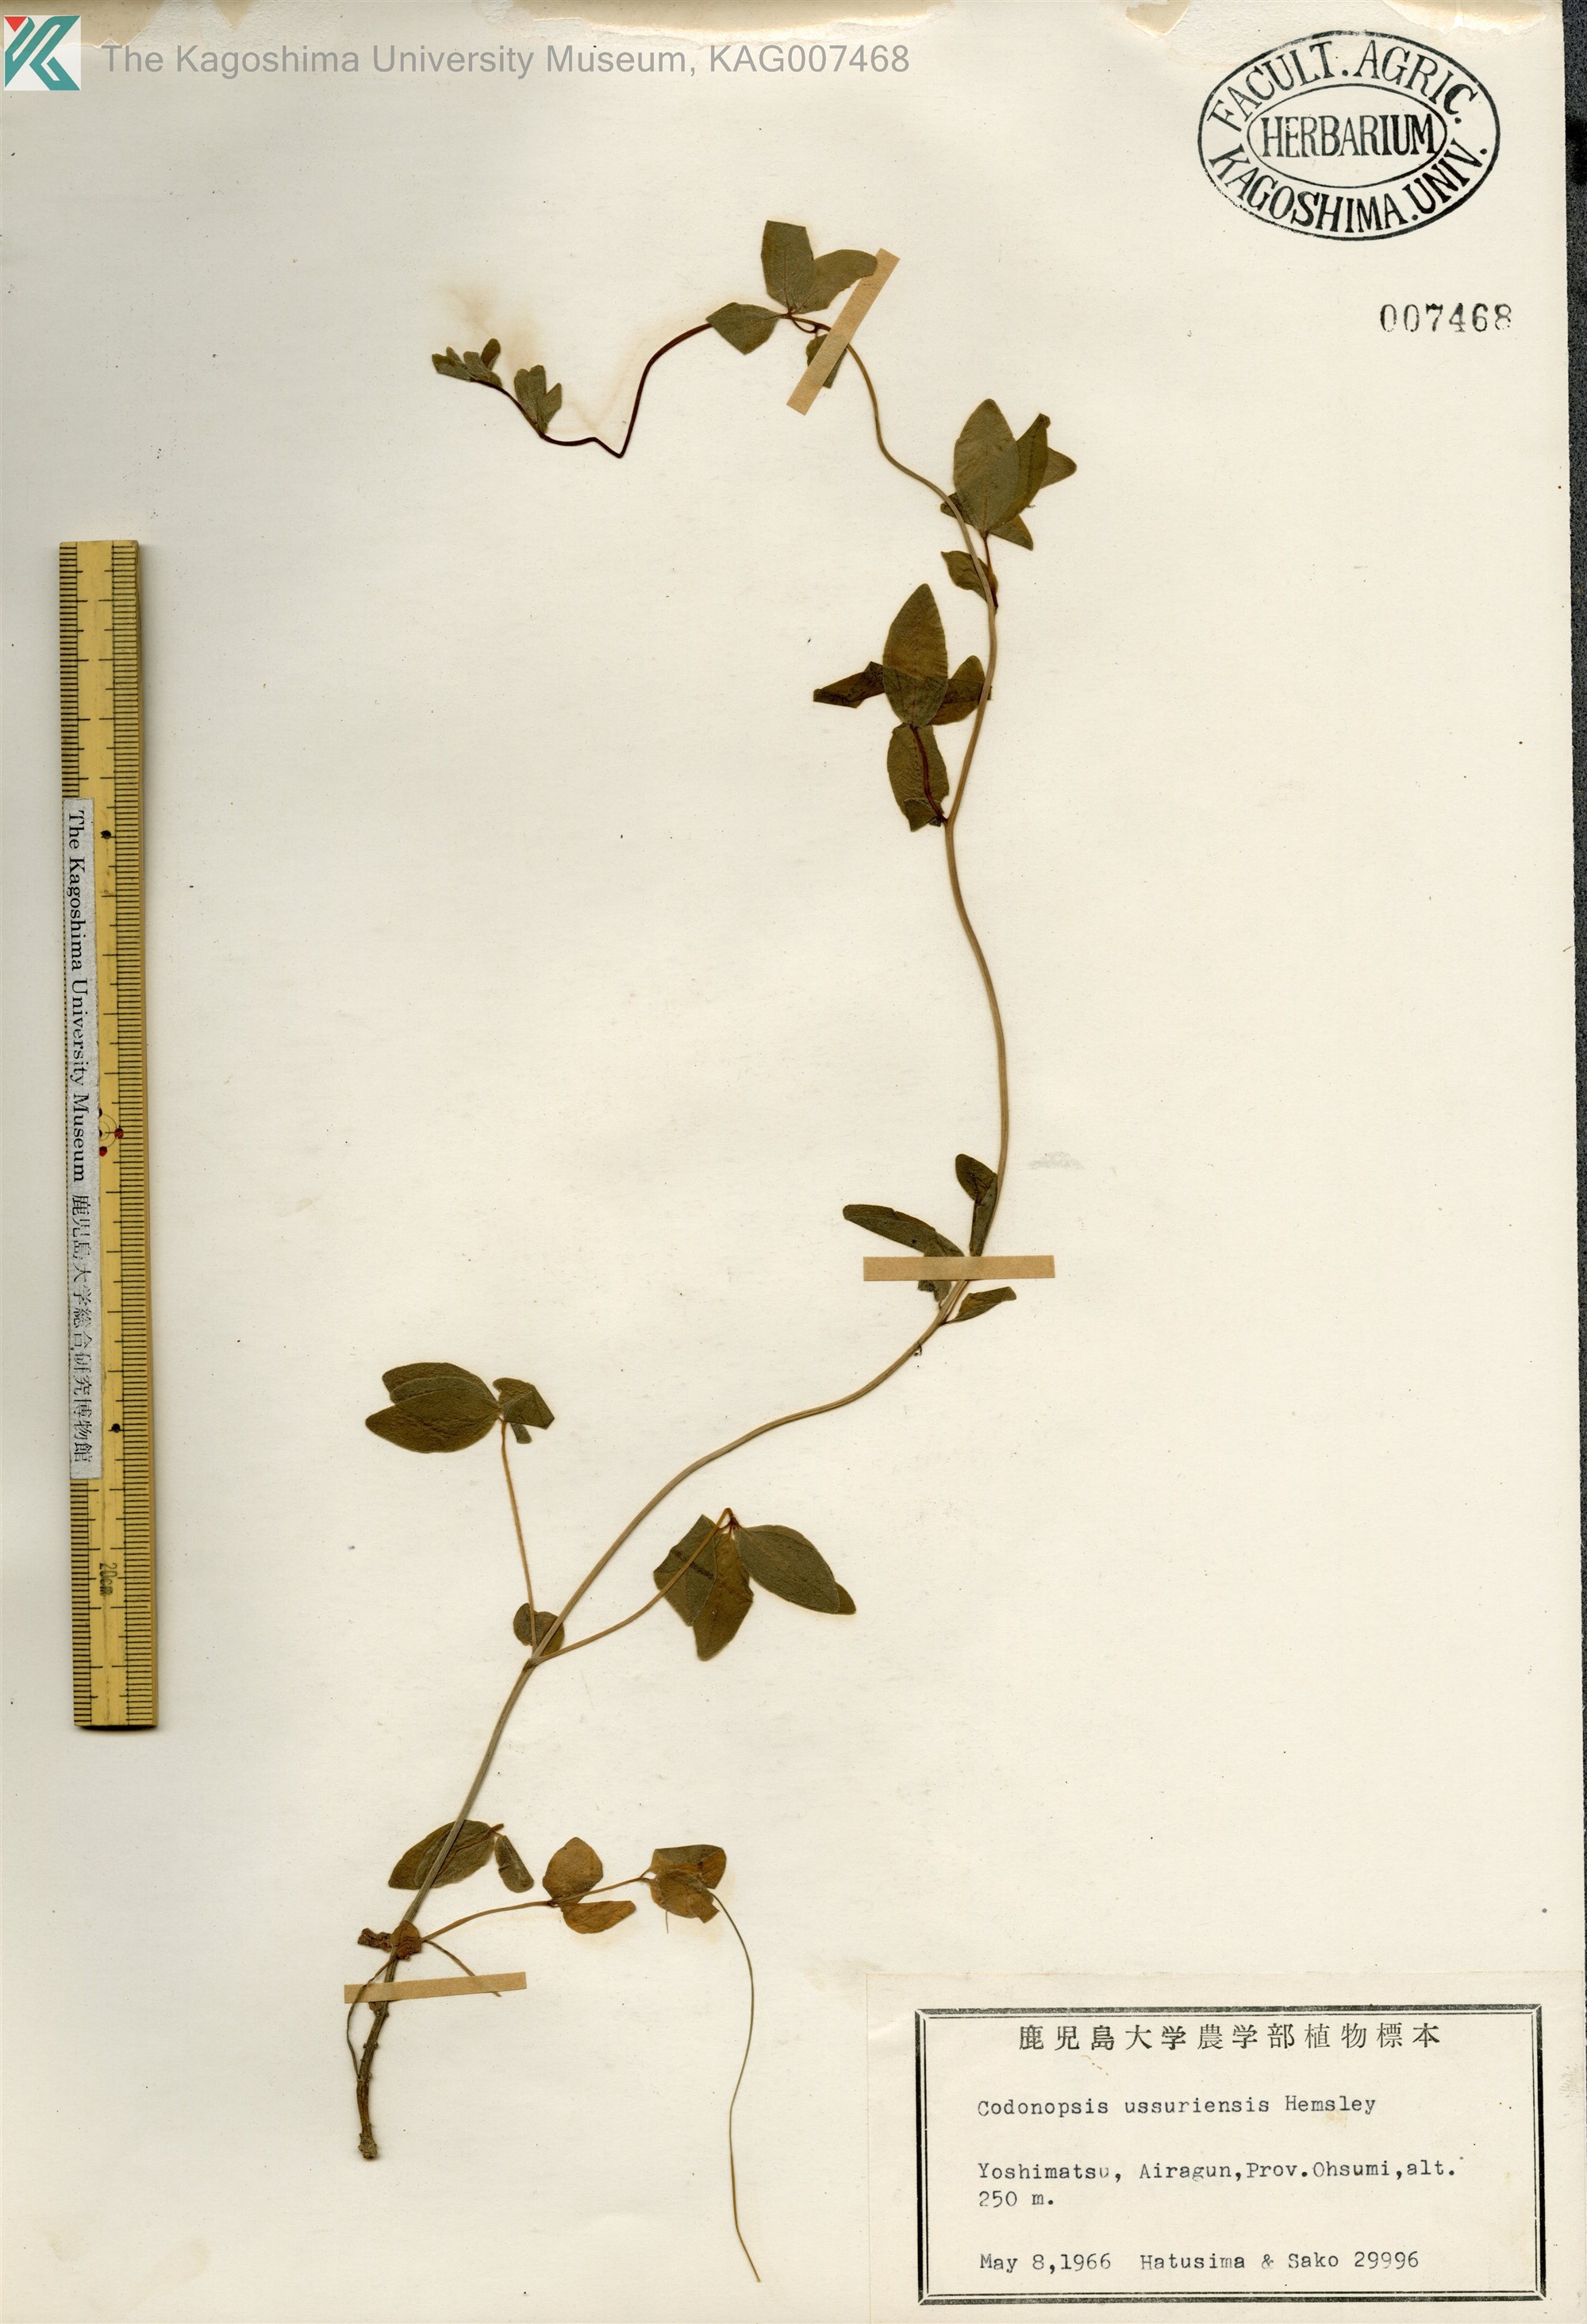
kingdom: Plantae
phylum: Tracheophyta
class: Magnoliopsida
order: Asterales
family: Campanulaceae
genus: Codonopsis
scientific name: Codonopsis ussuriensis
